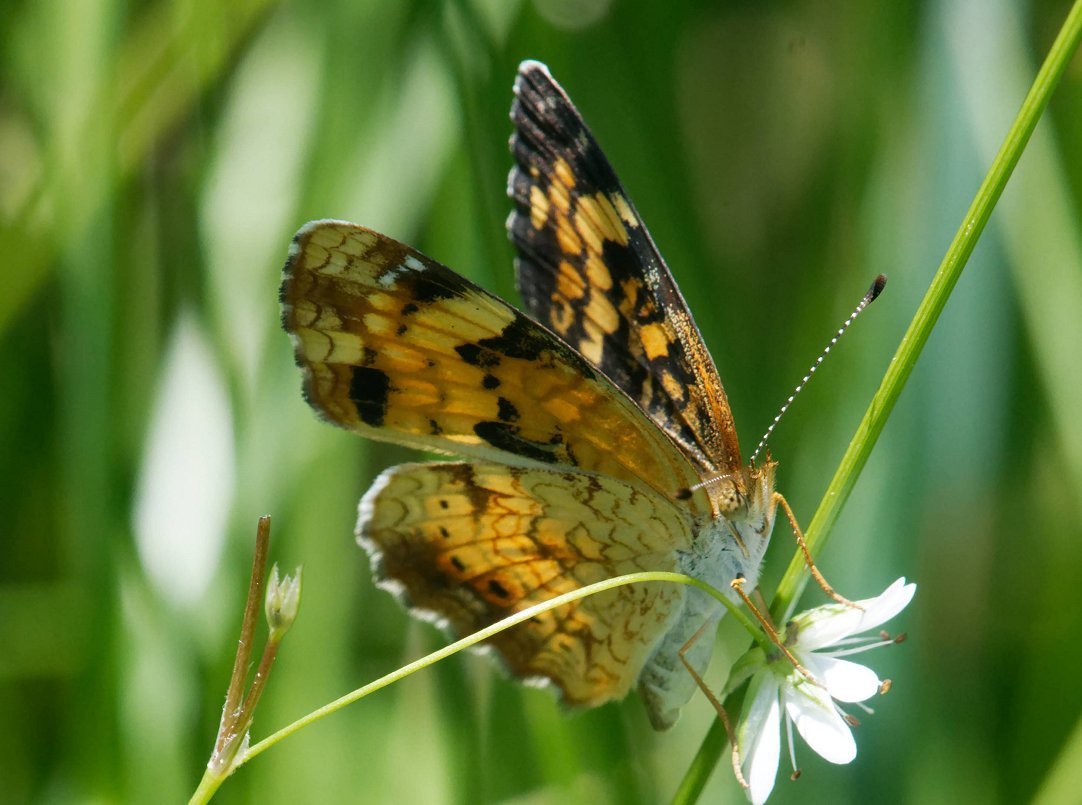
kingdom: Animalia
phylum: Arthropoda
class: Insecta
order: Lepidoptera
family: Nymphalidae
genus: Phyciodes
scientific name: Phyciodes tharos
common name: Pearl Crescent
